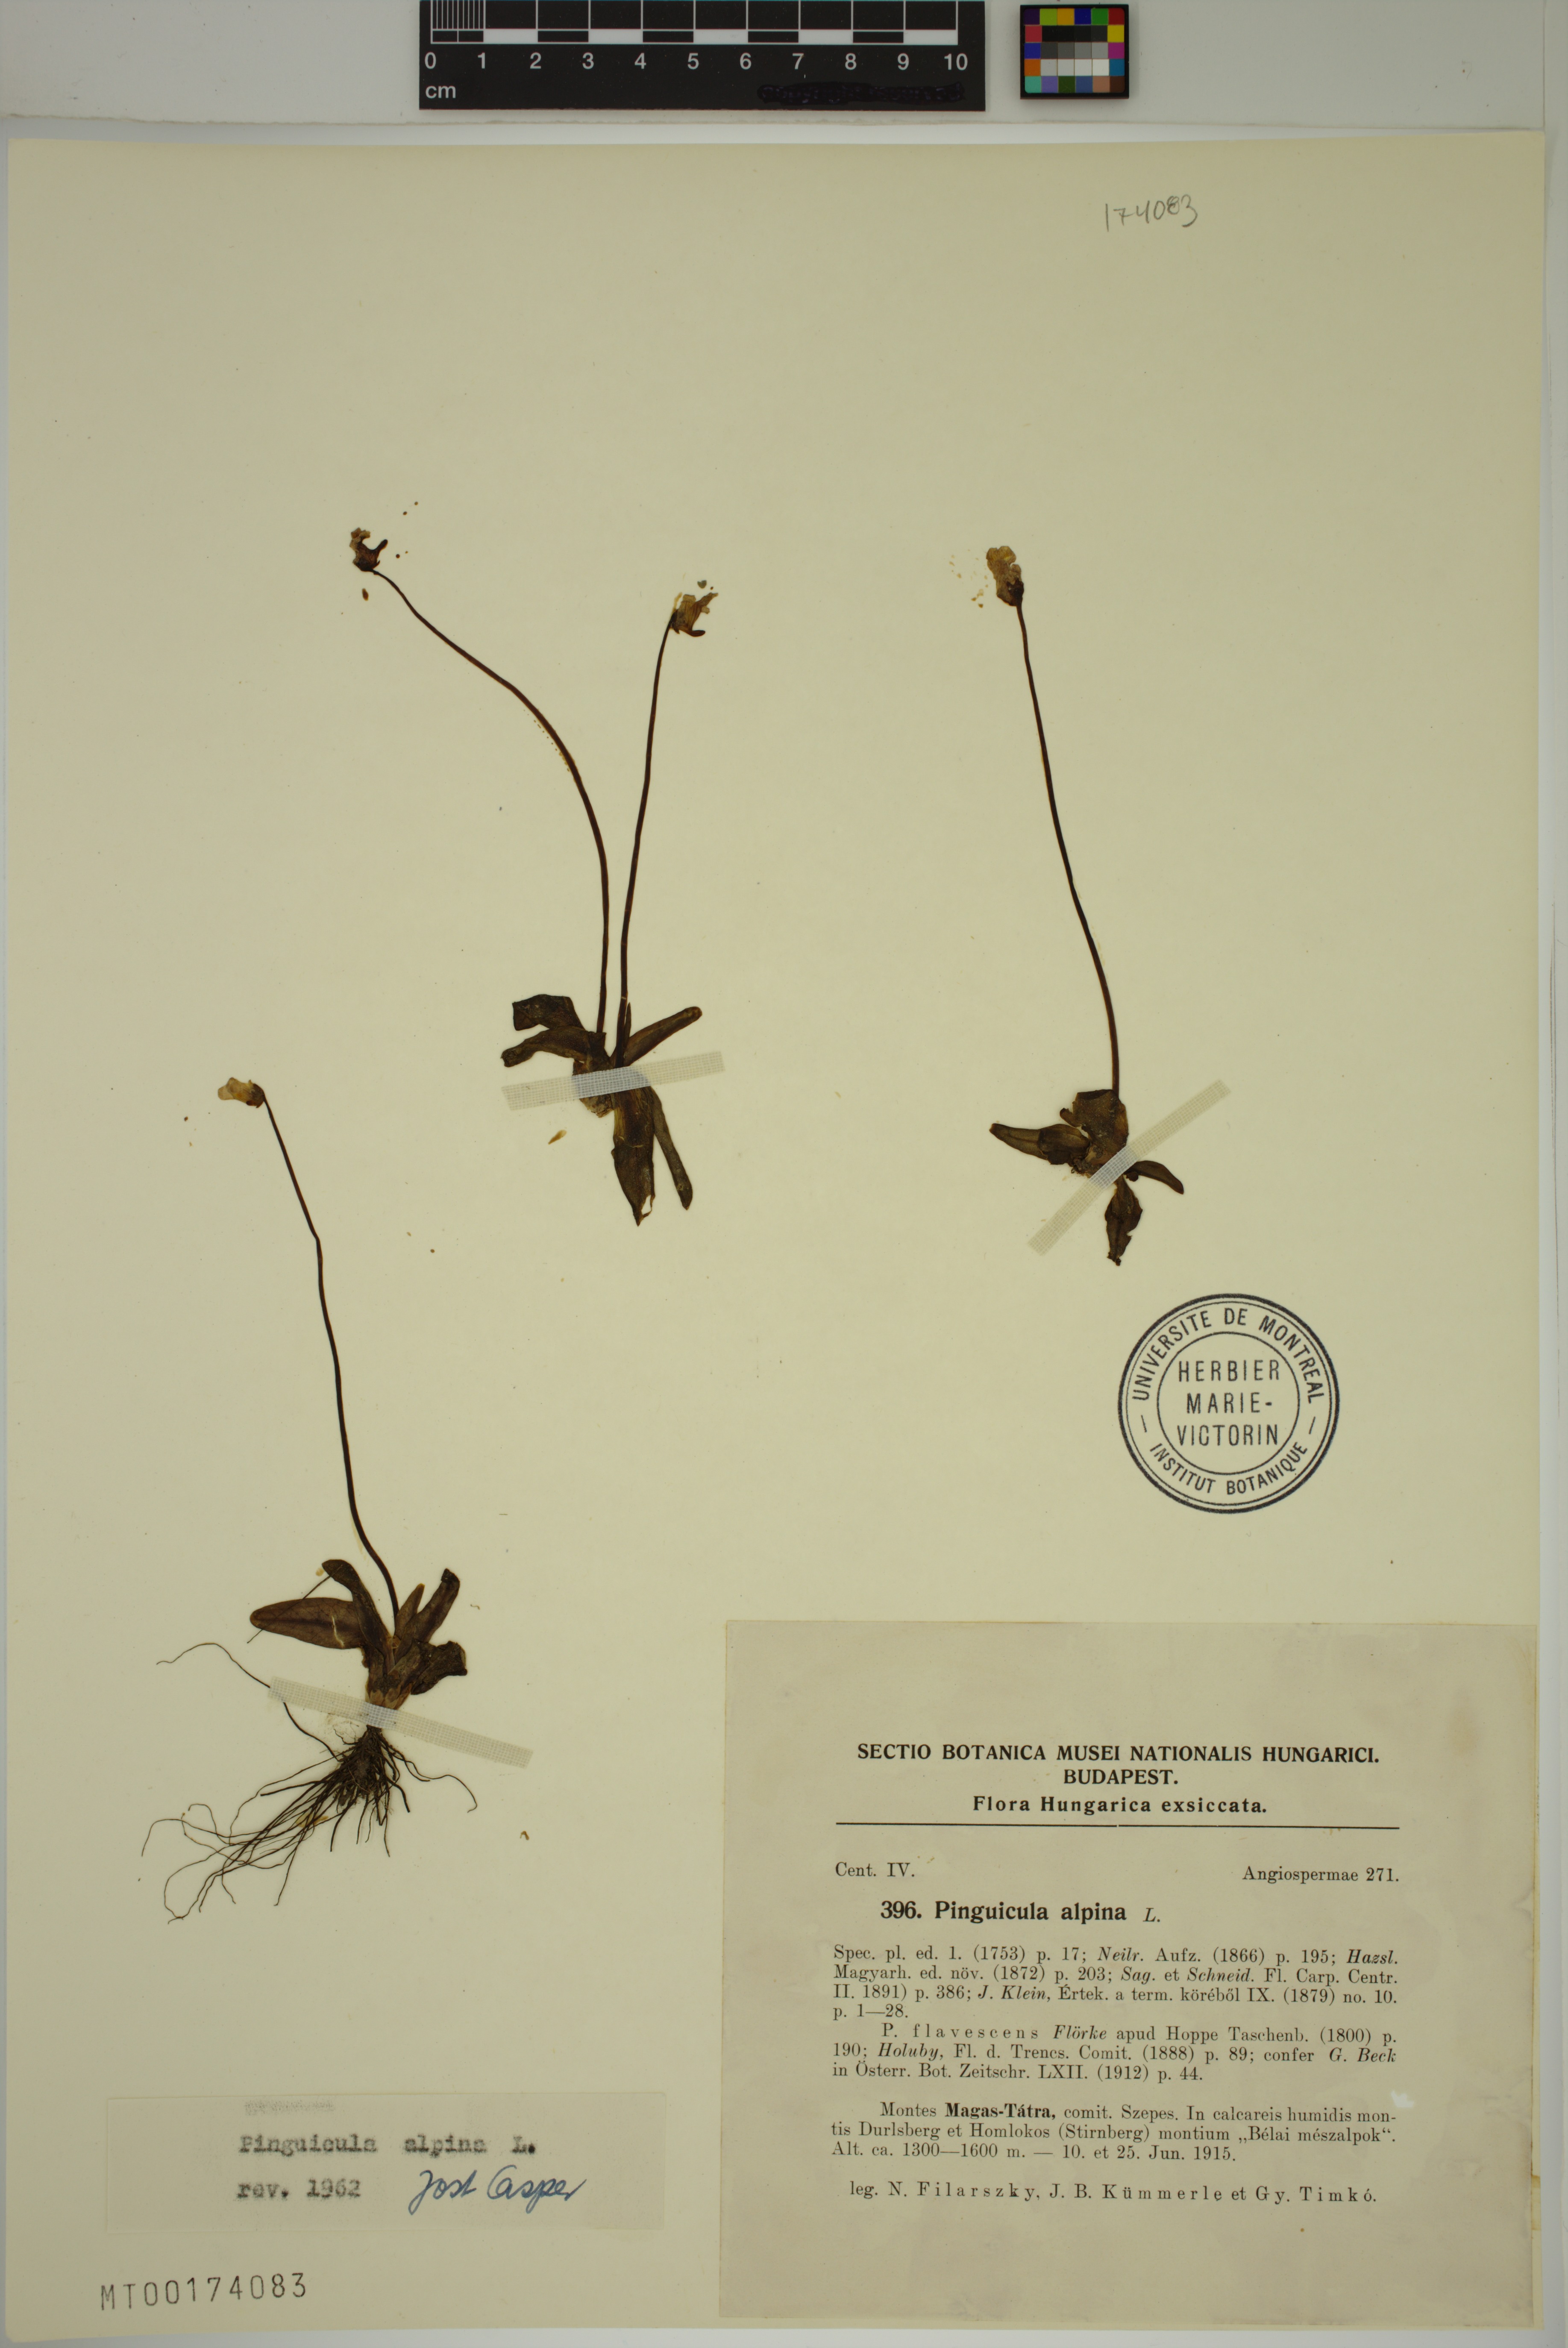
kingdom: Plantae
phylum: Tracheophyta
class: Magnoliopsida
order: Lamiales
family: Lentibulariaceae
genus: Pinguicula
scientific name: Pinguicula alpina
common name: Alpine butterwort
